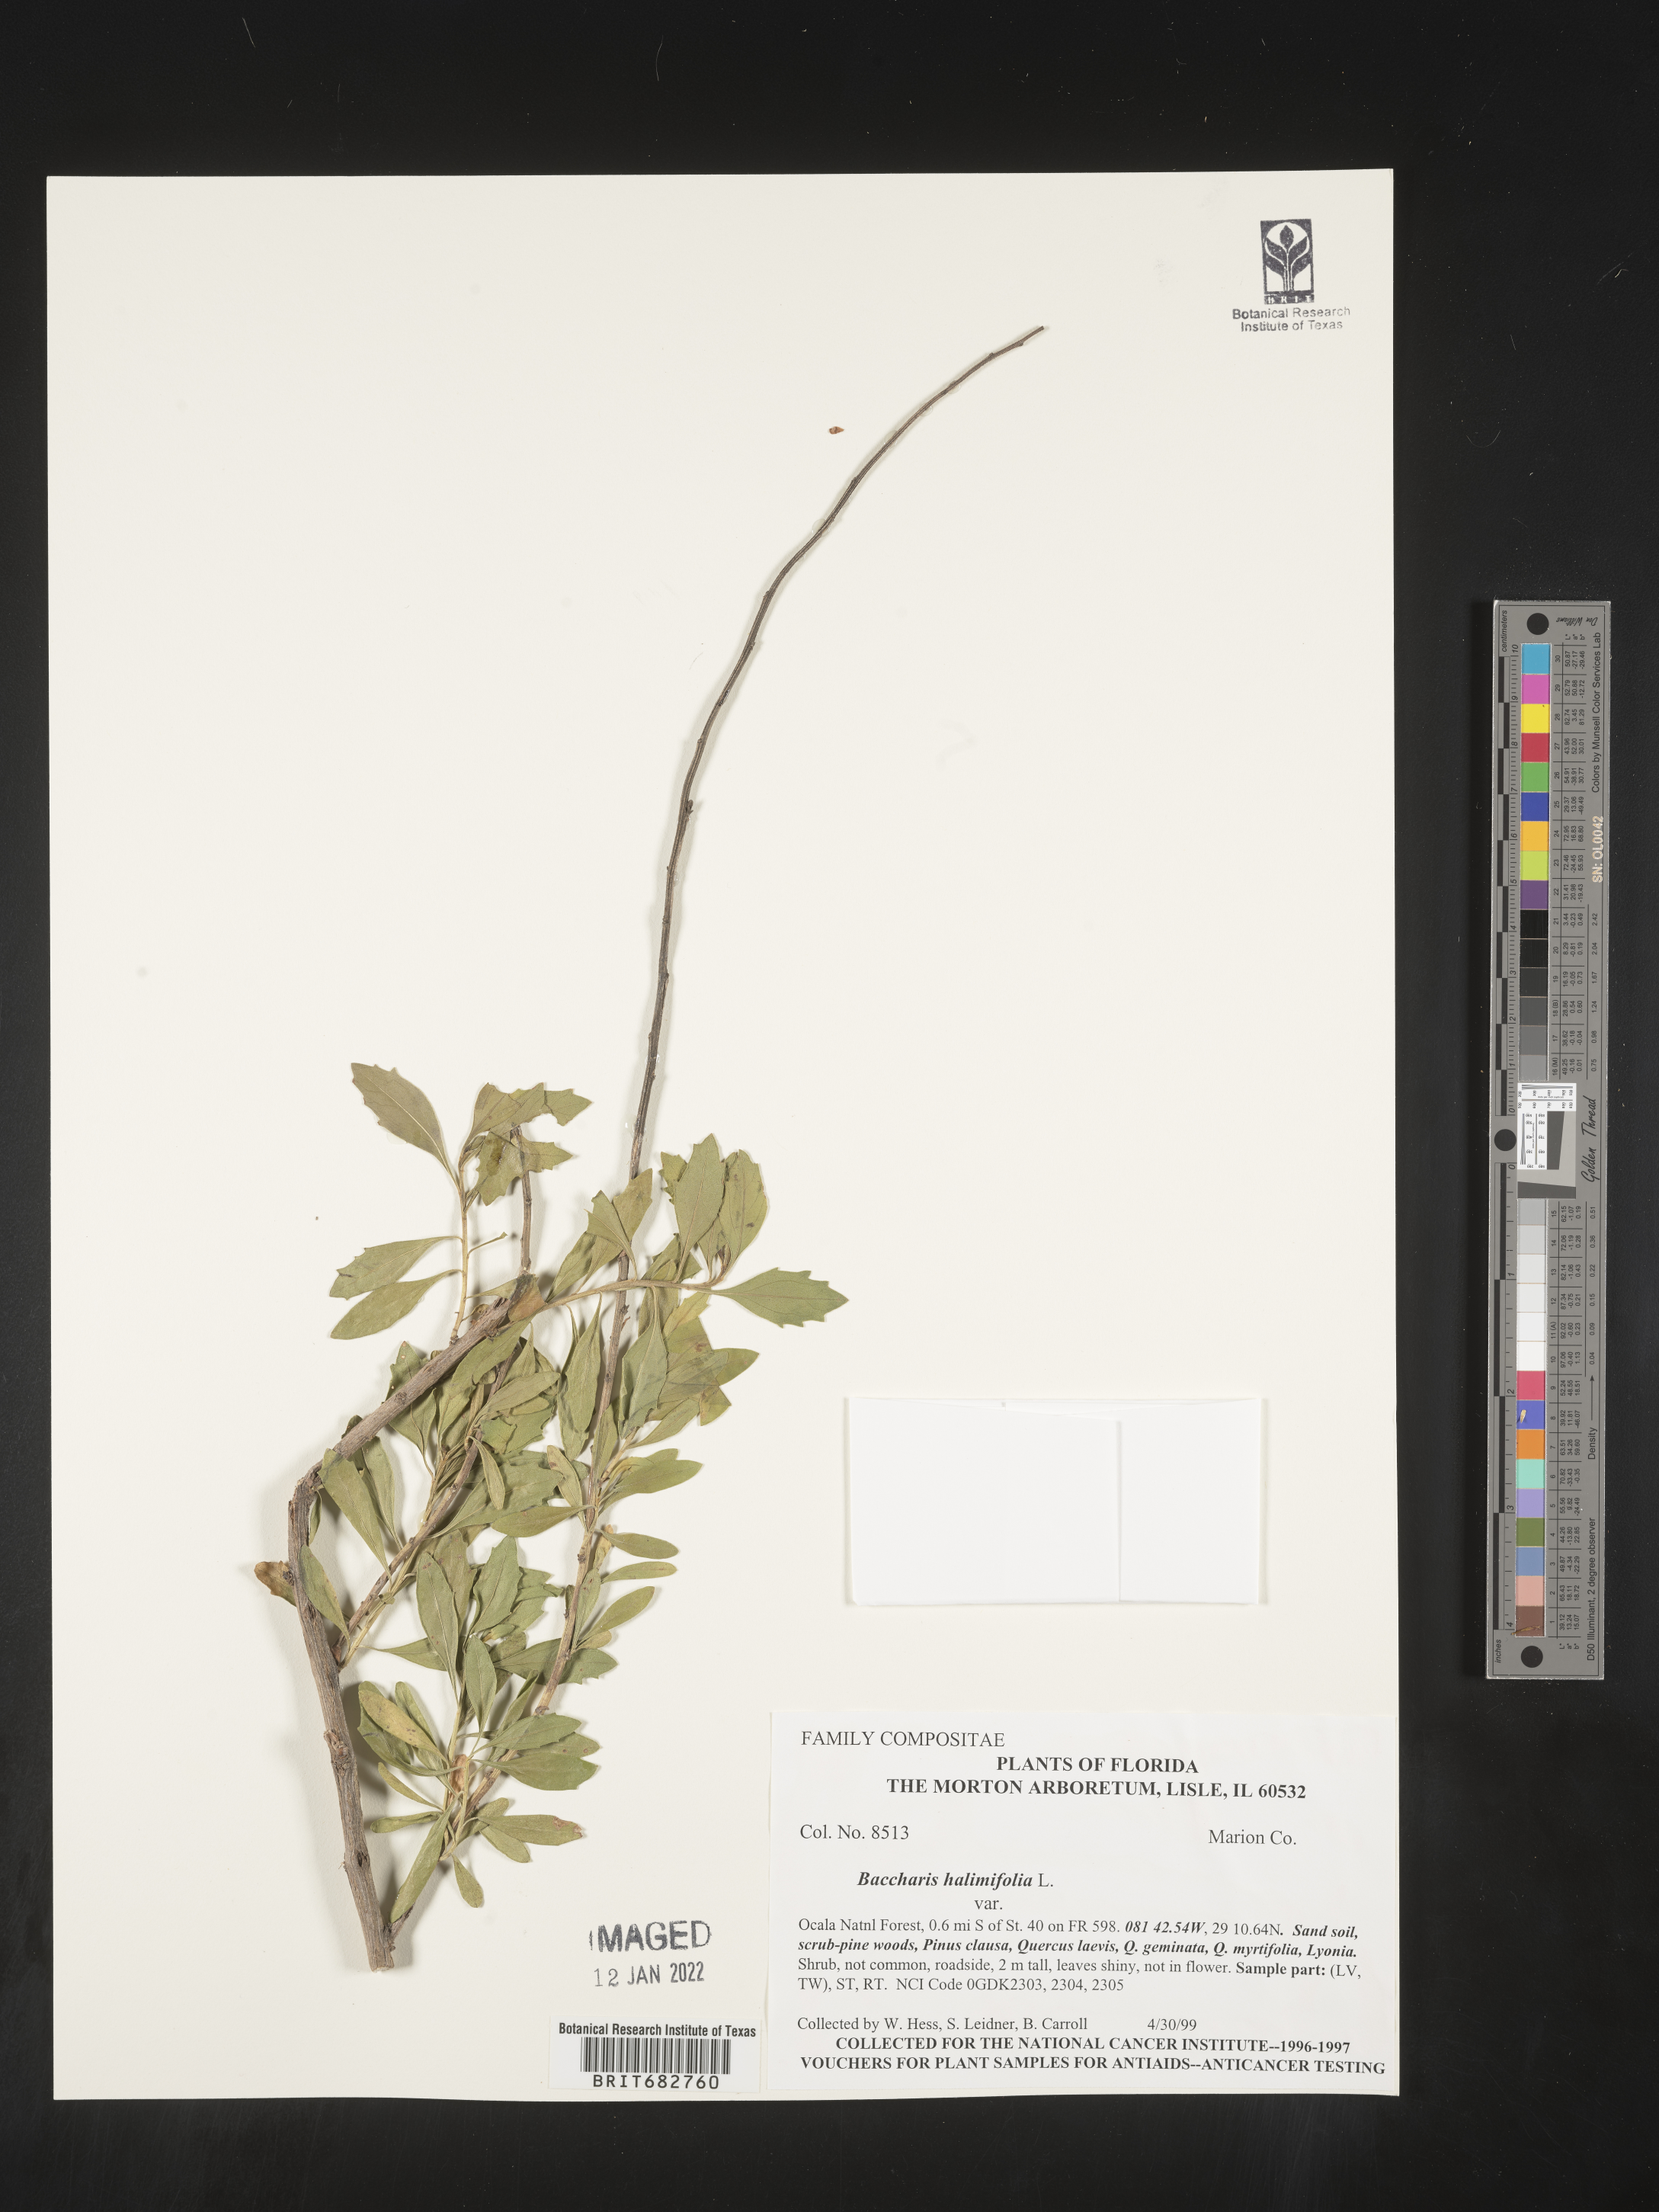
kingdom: Plantae
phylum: Tracheophyta
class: Magnoliopsida
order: Asterales
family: Asteraceae
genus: Nidorella
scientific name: Nidorella ivifolia
